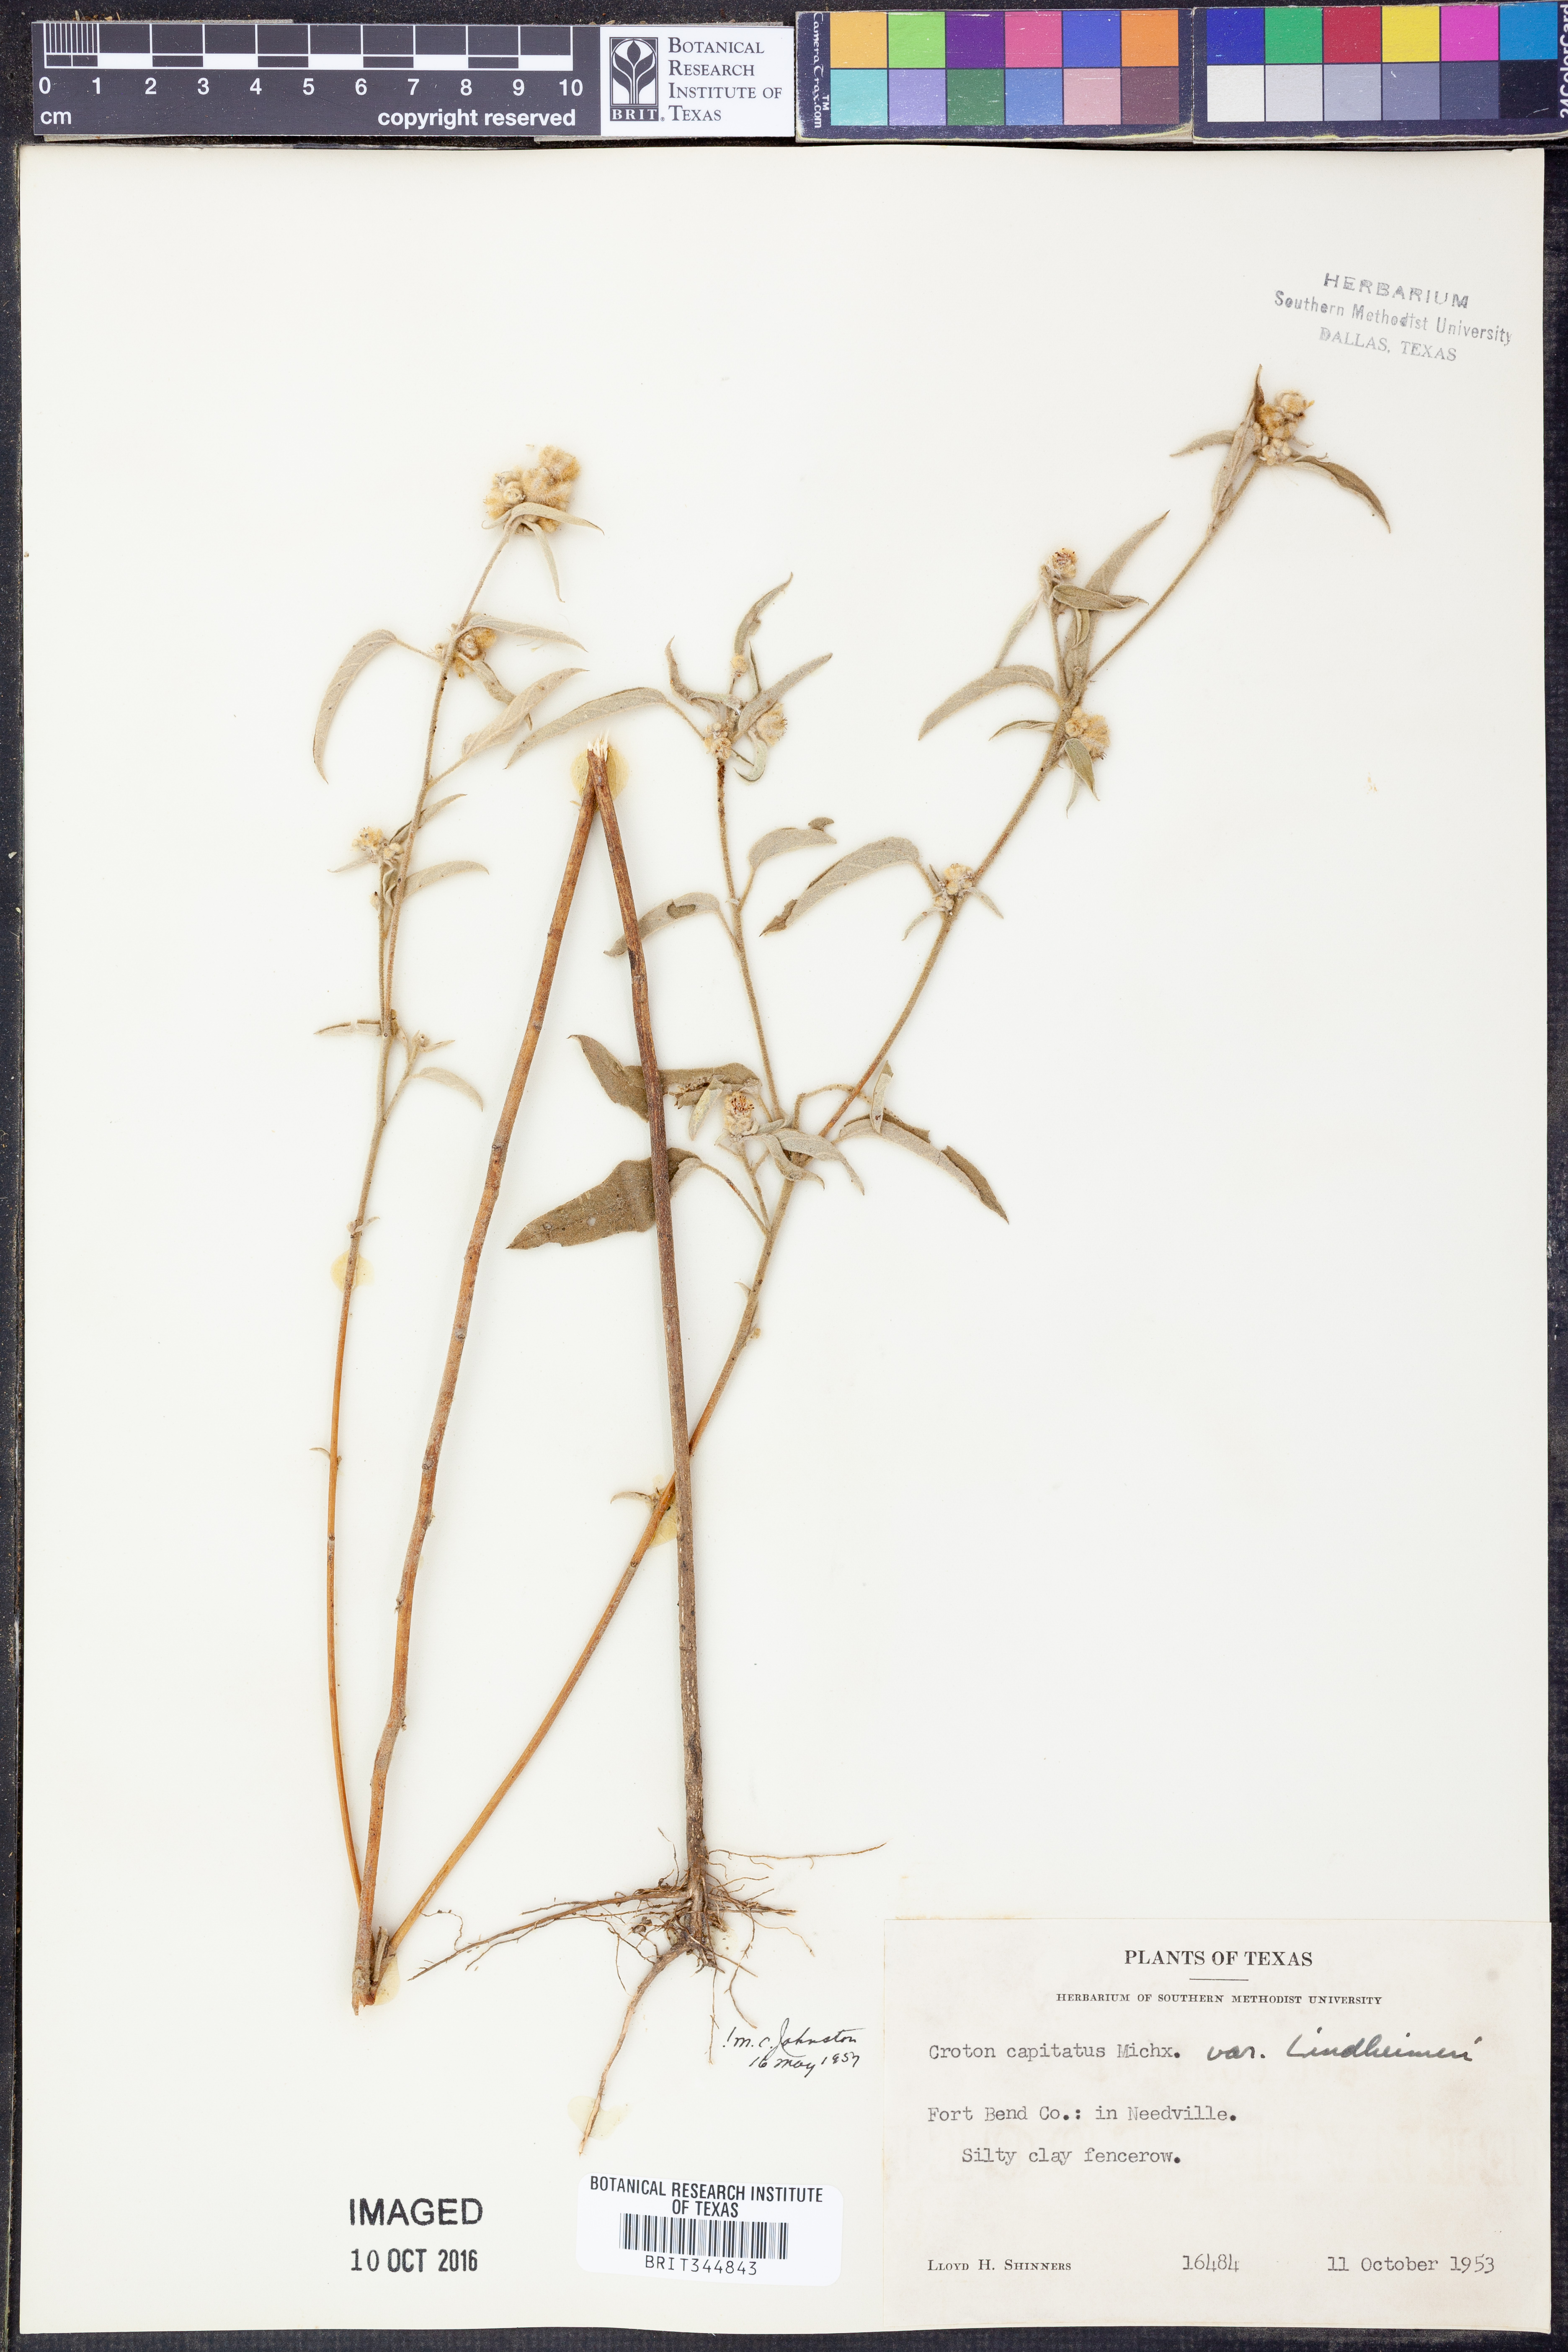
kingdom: Plantae
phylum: Tracheophyta
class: Magnoliopsida
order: Malpighiales
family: Euphorbiaceae
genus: Croton
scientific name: Croton lindheimeri
